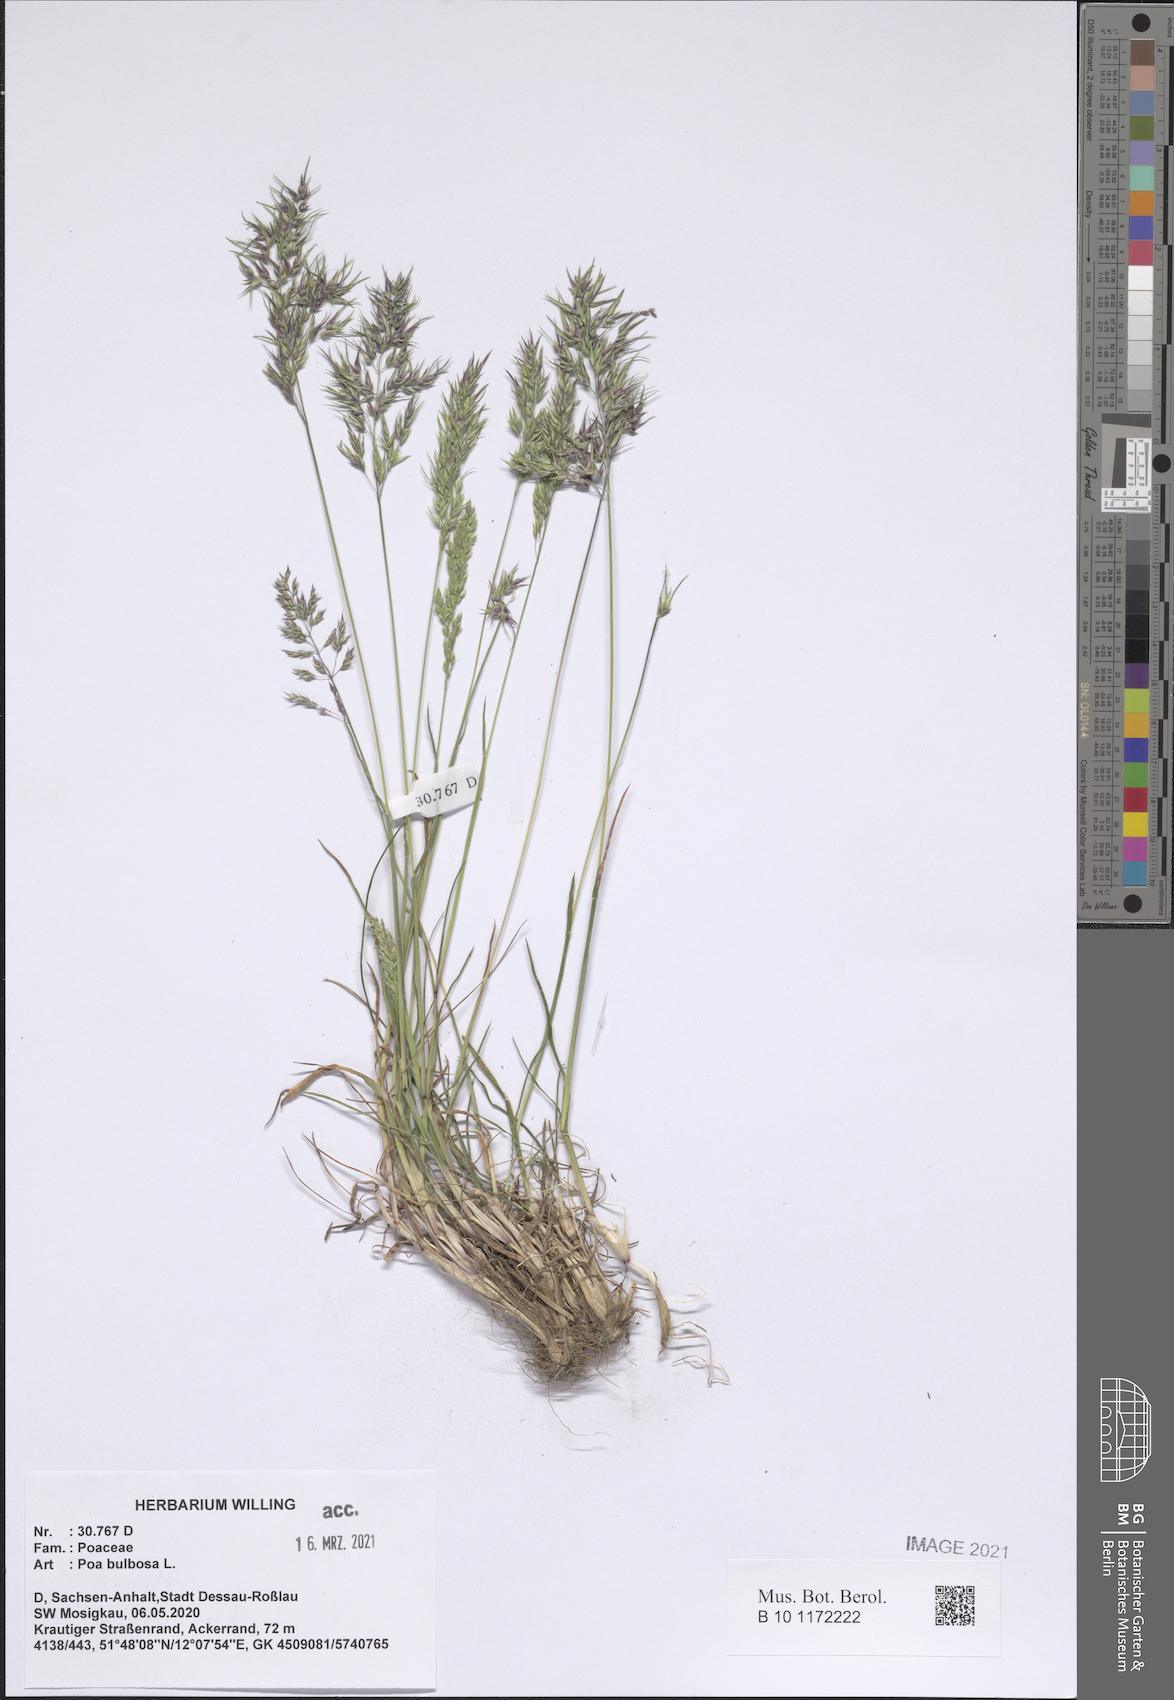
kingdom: Plantae
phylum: Tracheophyta
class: Liliopsida
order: Poales
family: Poaceae
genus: Poa
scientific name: Poa bulbosa
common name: Bulbous bluegrass
